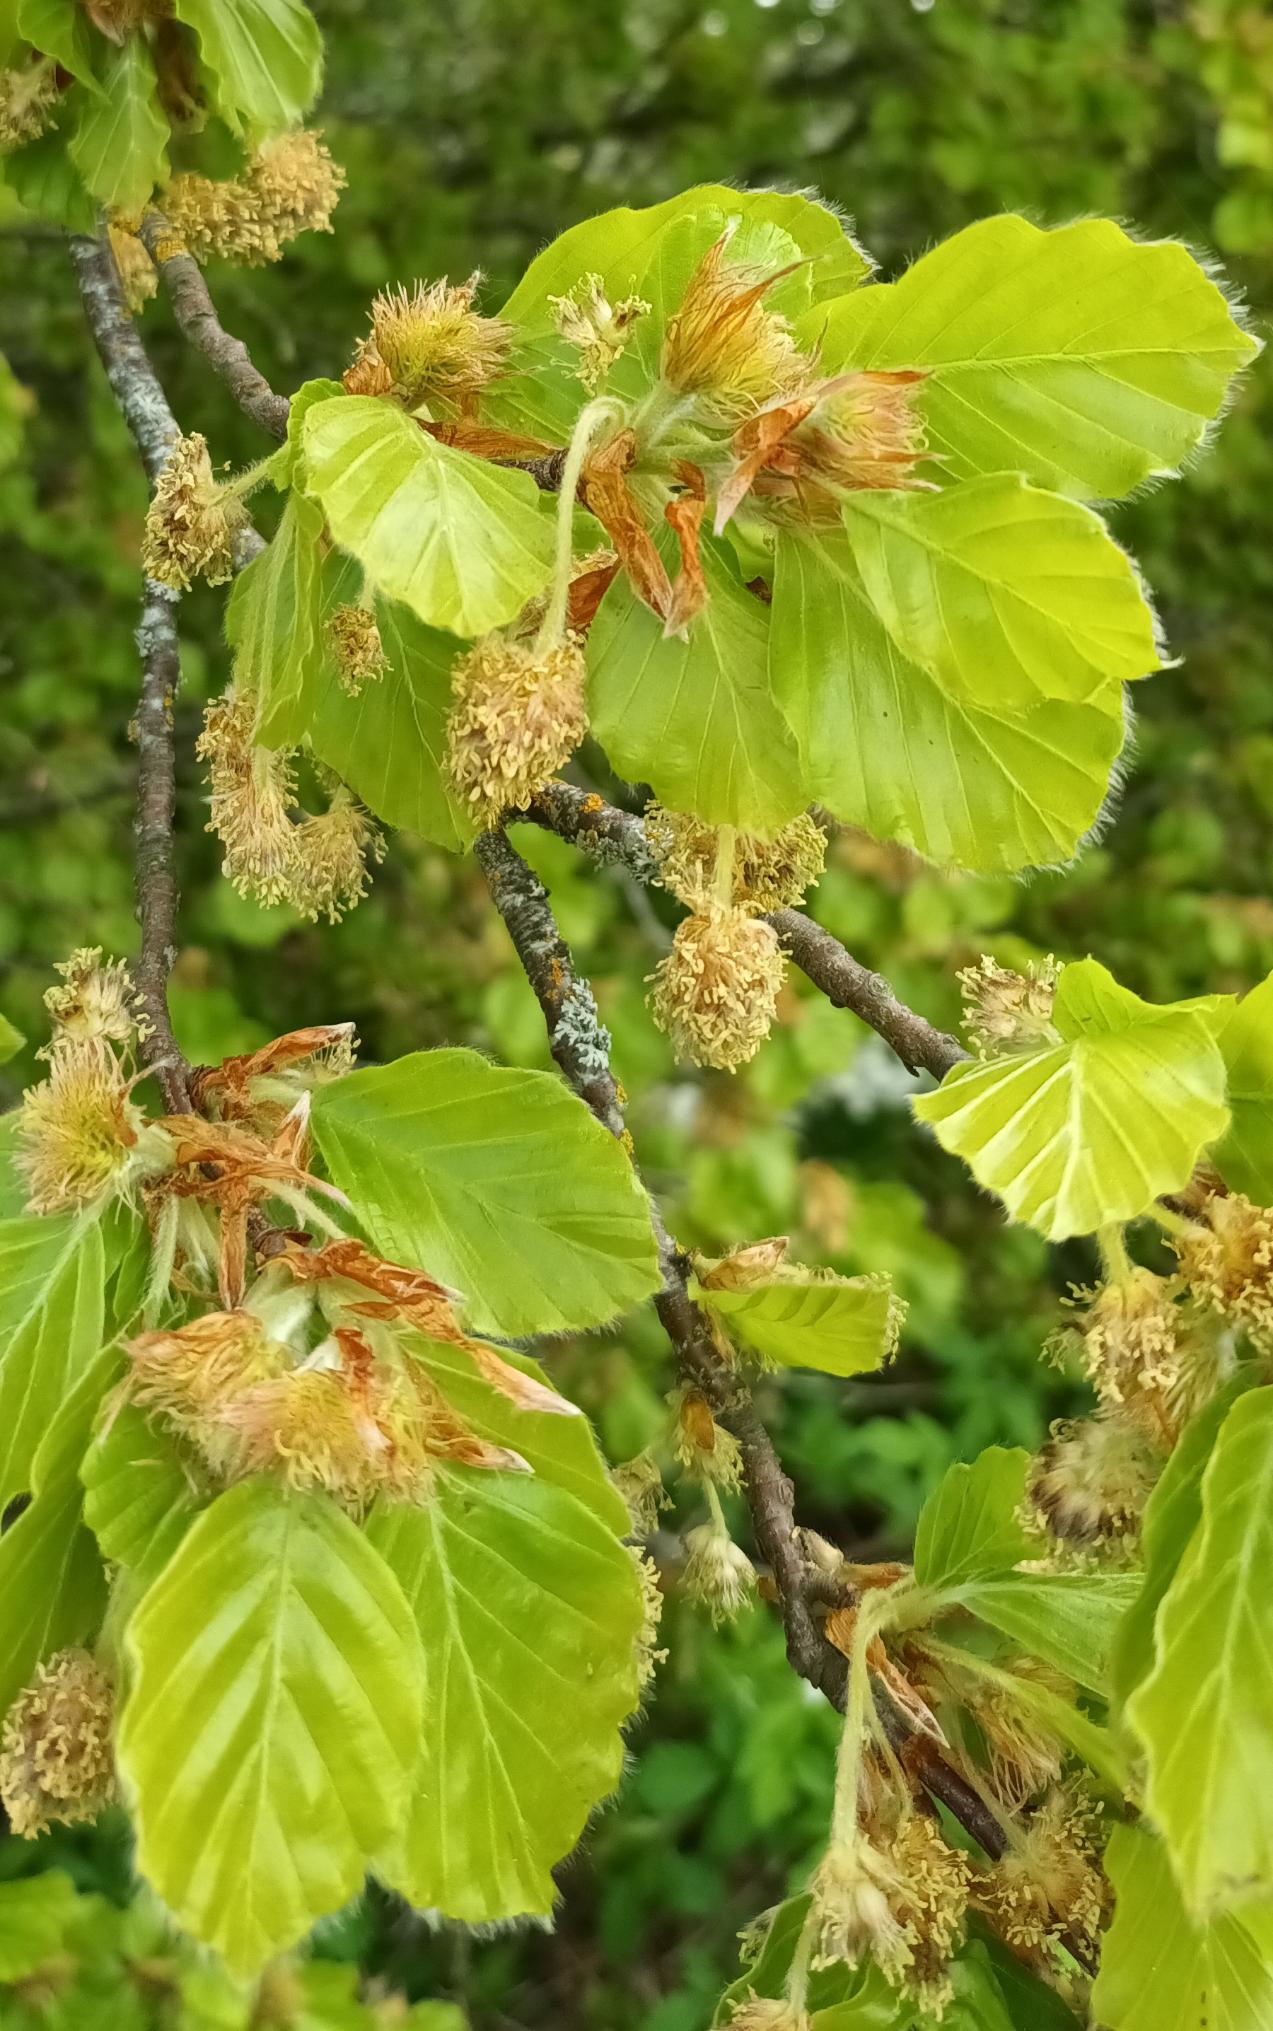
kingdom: Plantae
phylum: Tracheophyta
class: Magnoliopsida
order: Fagales
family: Fagaceae
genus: Fagus
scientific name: Fagus sylvatica
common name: Bøg
